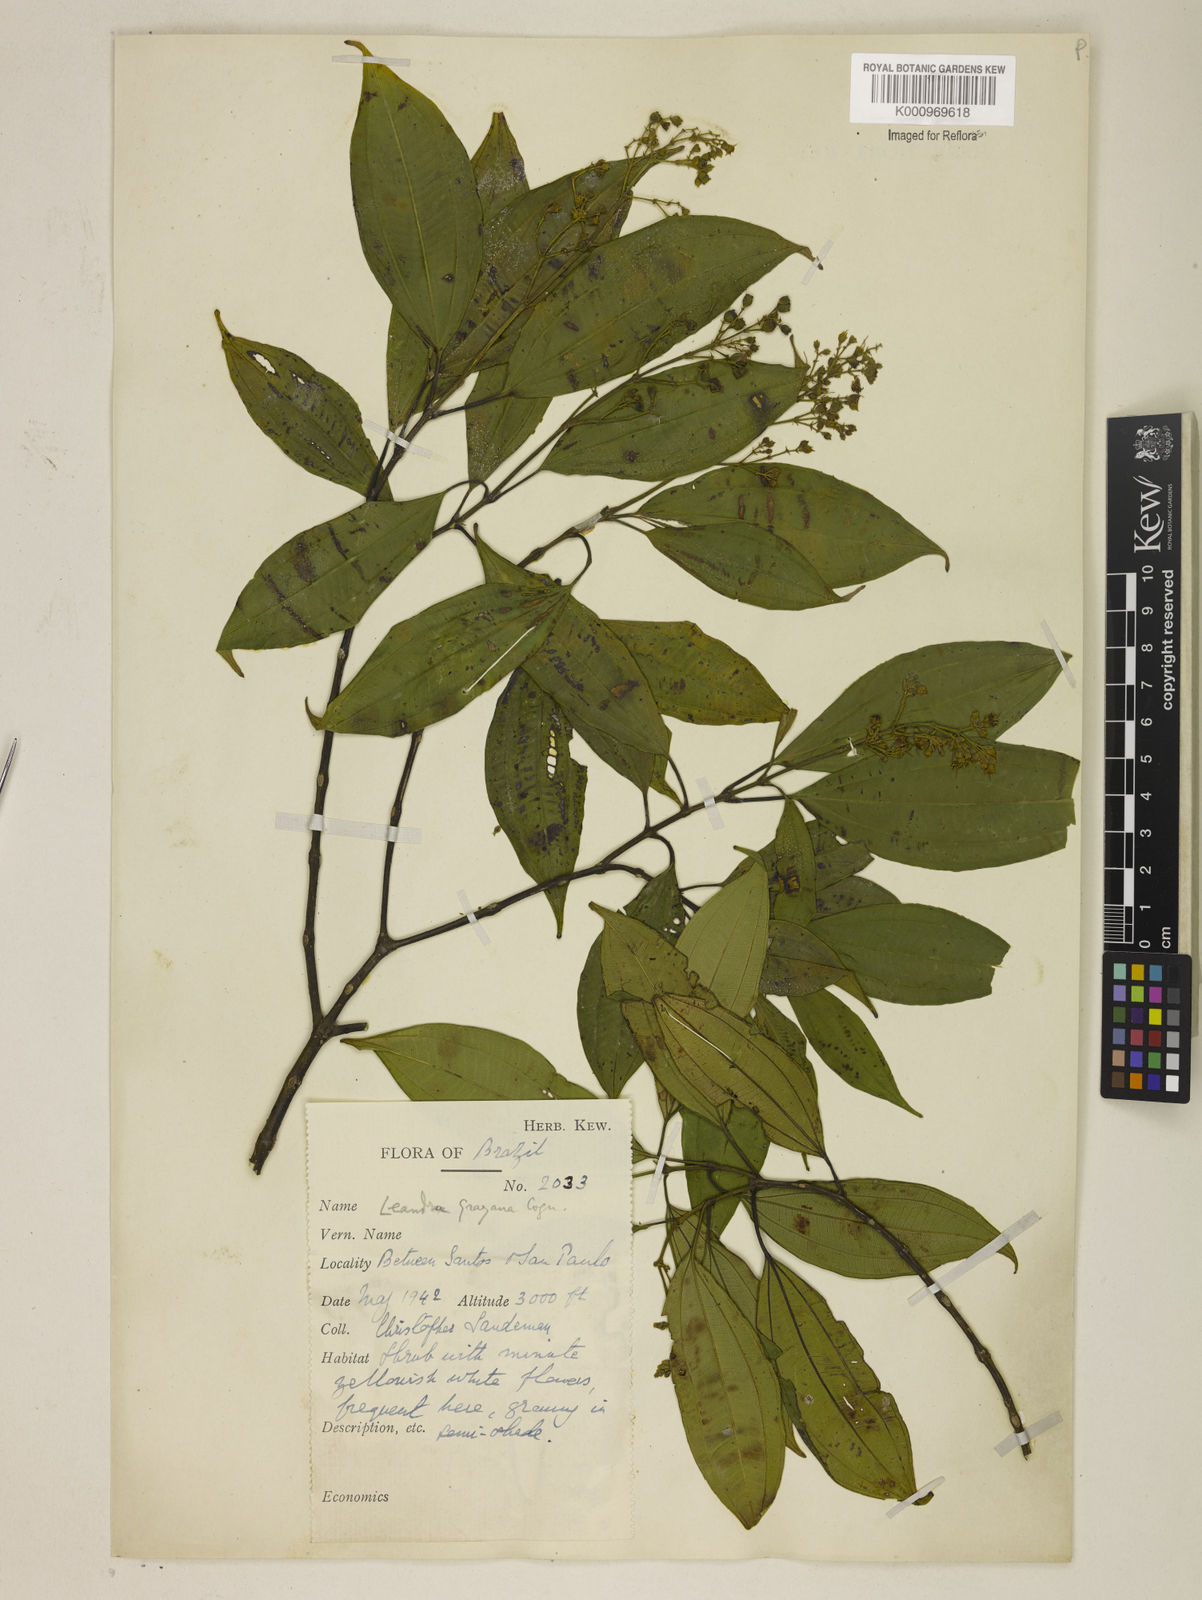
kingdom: Plantae
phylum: Tracheophyta
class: Magnoliopsida
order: Myrtales
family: Melastomataceae
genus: Miconia
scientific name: Miconia leagrayana
